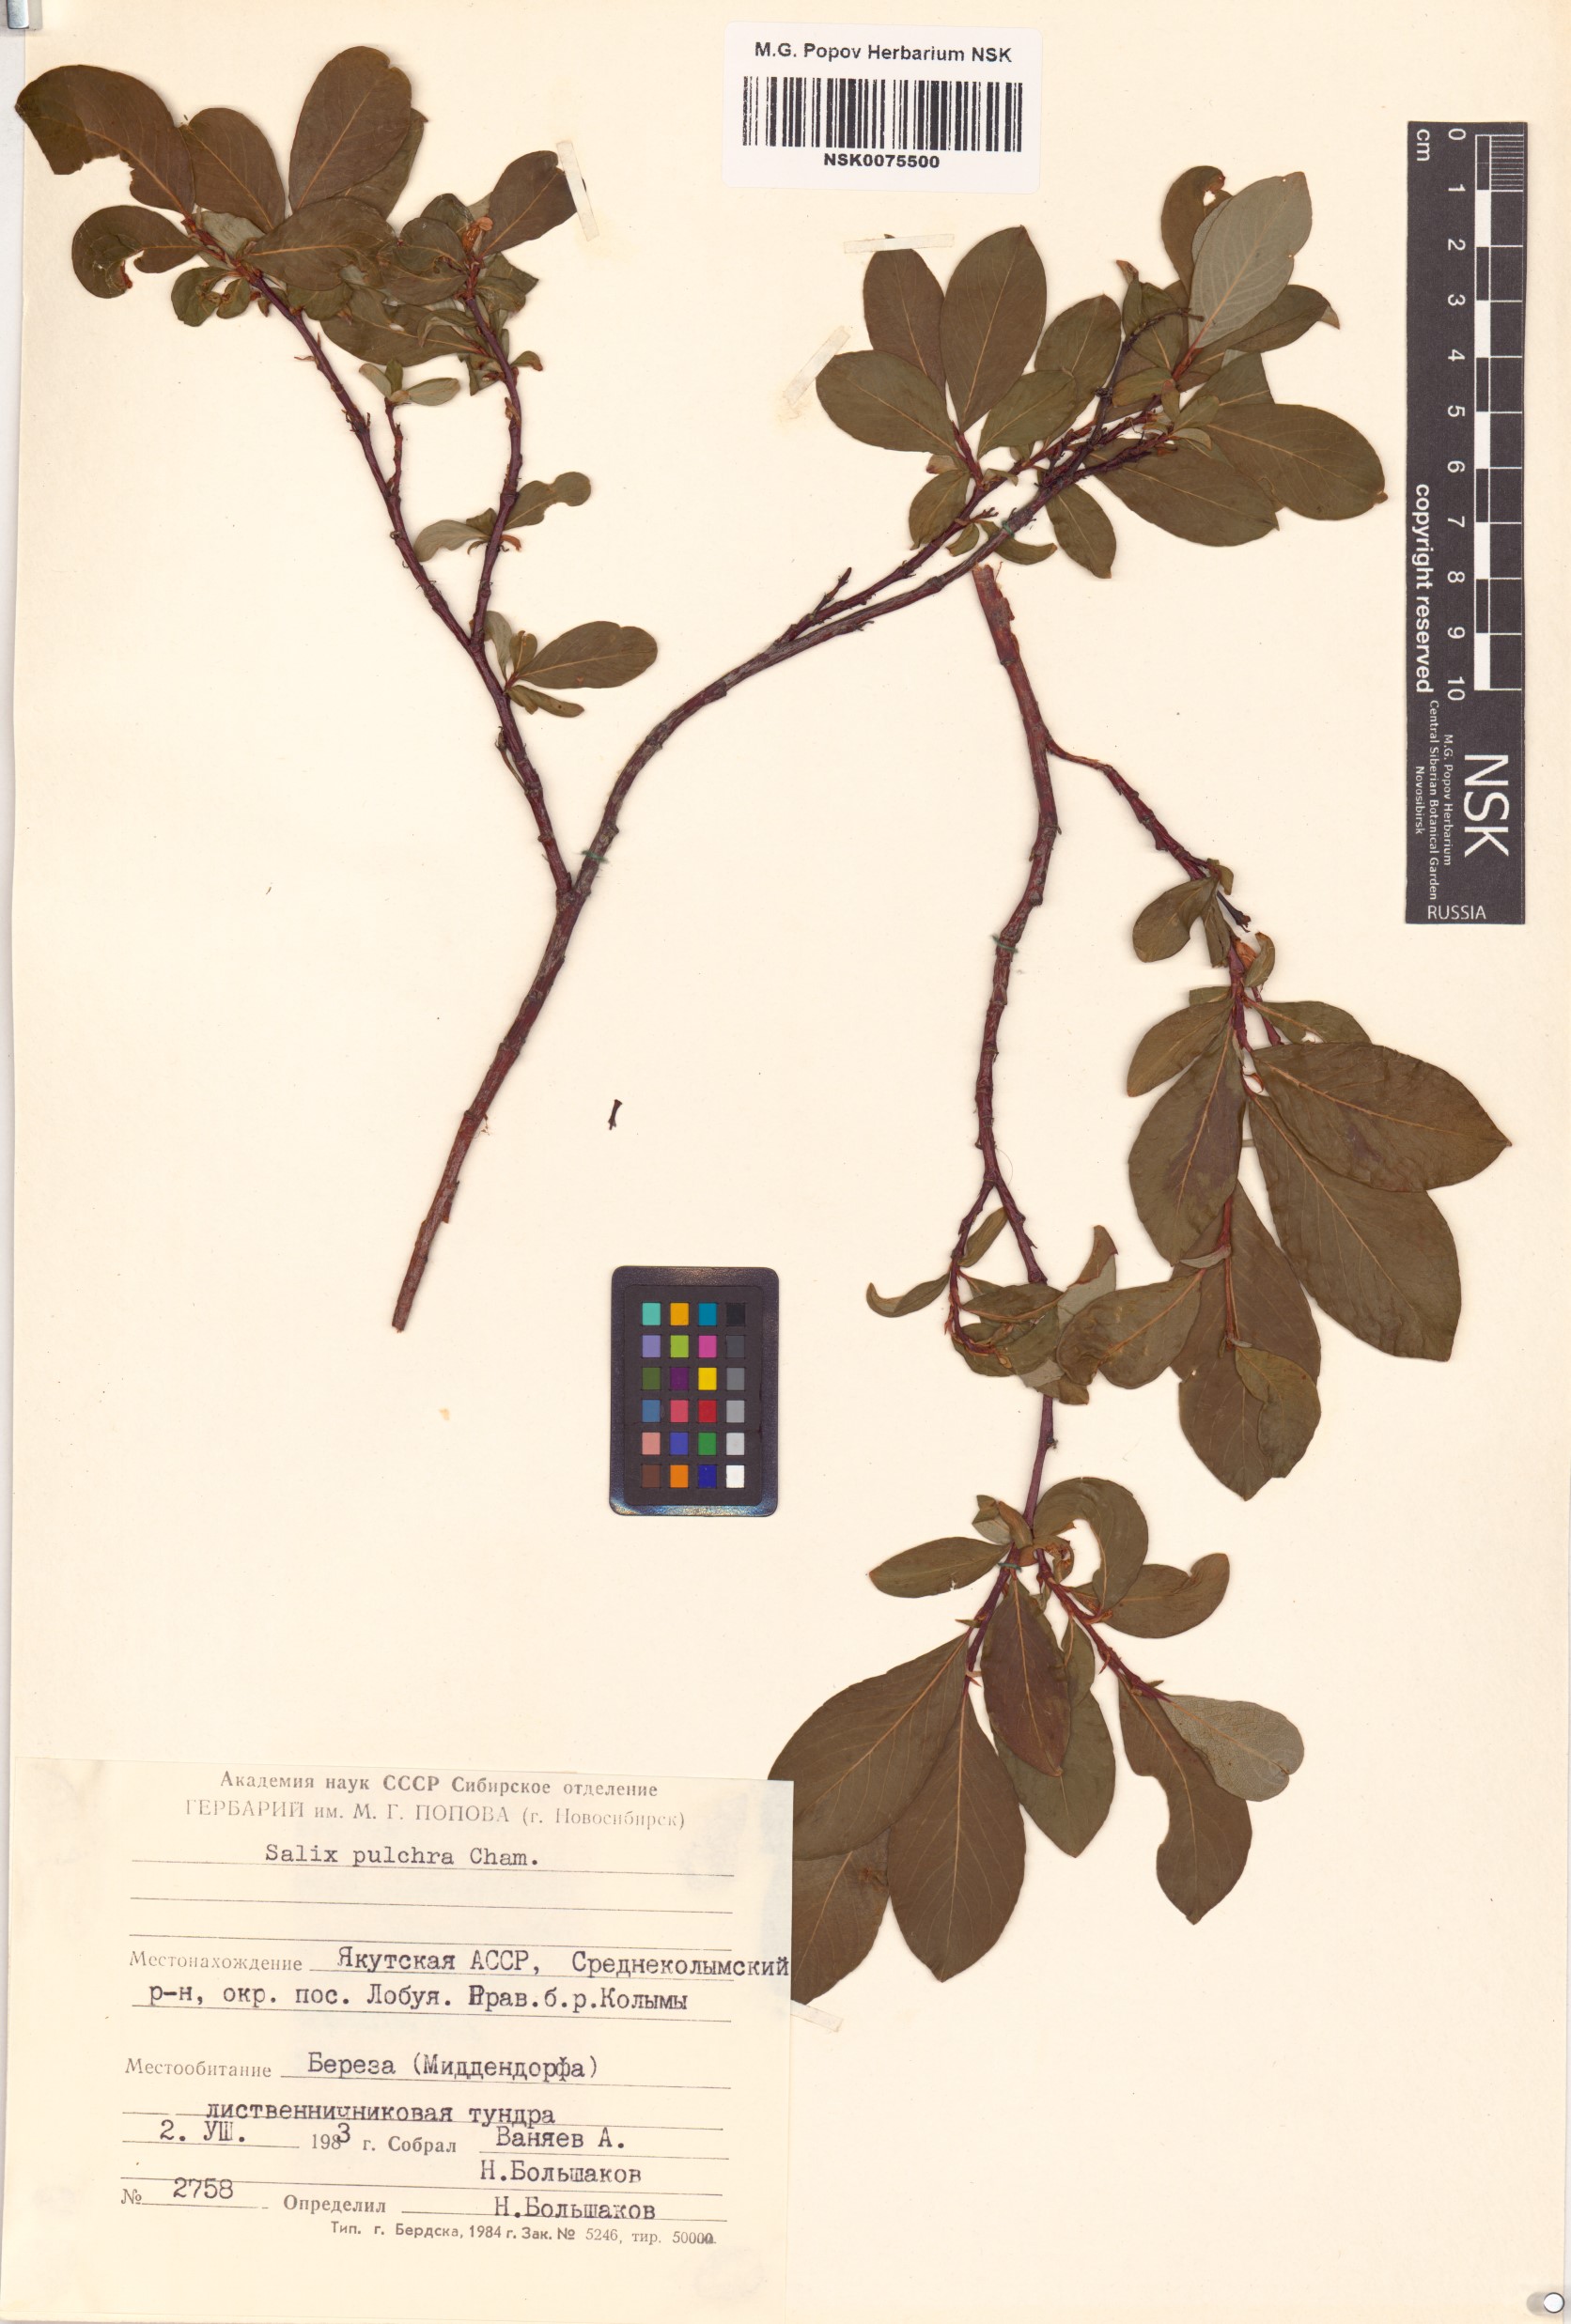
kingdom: Plantae
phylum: Tracheophyta
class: Magnoliopsida
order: Malpighiales
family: Salicaceae
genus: Salix
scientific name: Salix pulchra
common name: Diamond-leaved willow
